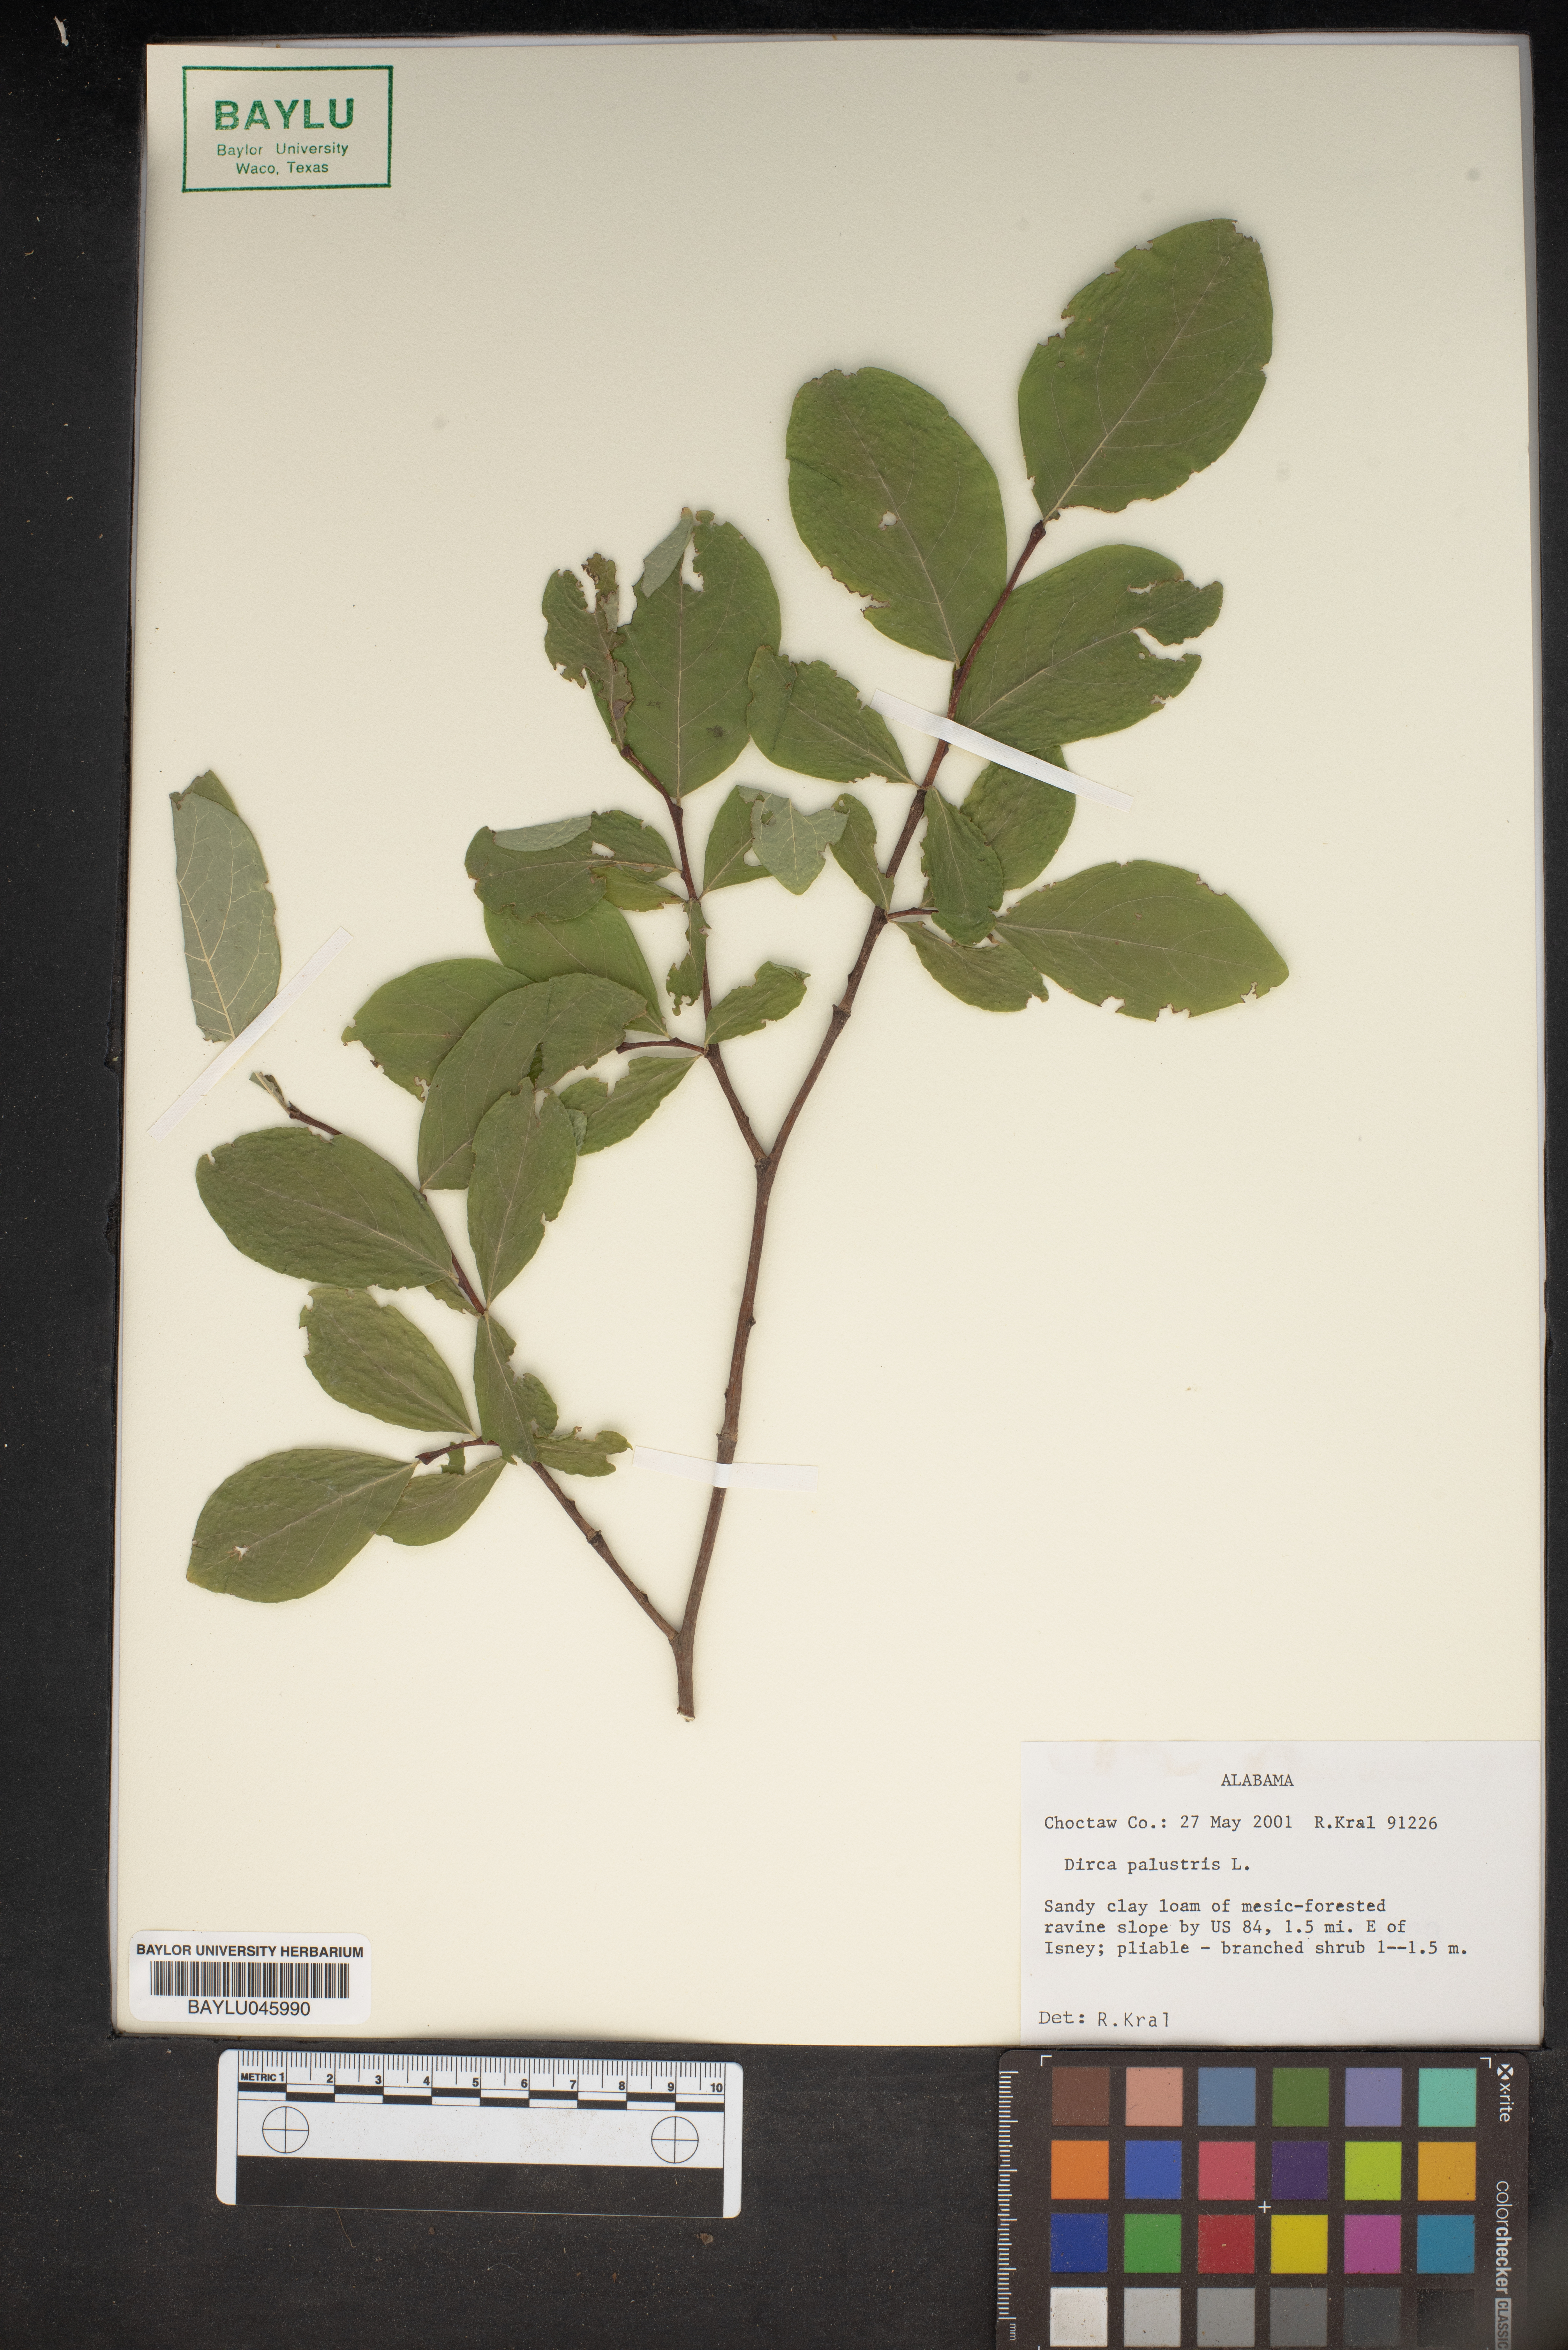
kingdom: Plantae
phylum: Tracheophyta
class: Magnoliopsida
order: Malvales
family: Thymelaeaceae
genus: Dirca
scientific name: Dirca palustris
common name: Leatherwood
